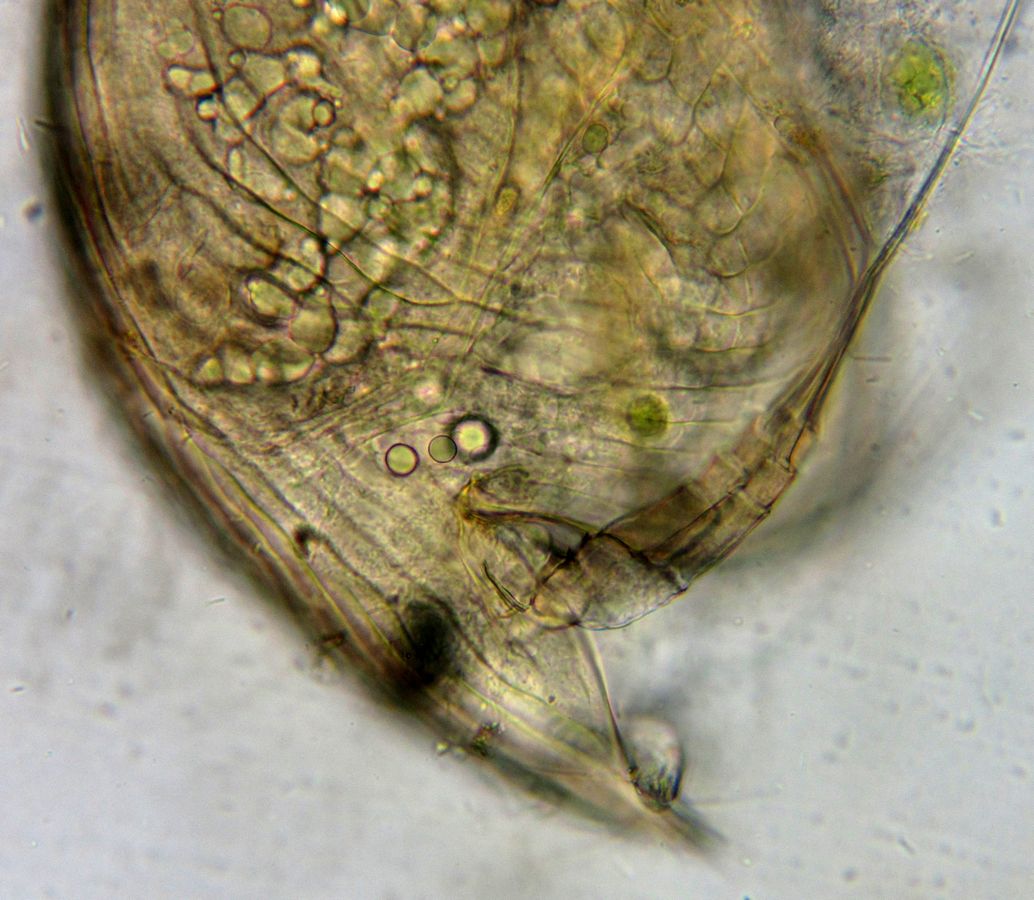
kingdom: Animalia
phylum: Arthropoda
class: Branchiopoda
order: Diplostraca
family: Chydoridae
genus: Graptoleberis
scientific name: Graptoleberis testudinaria
